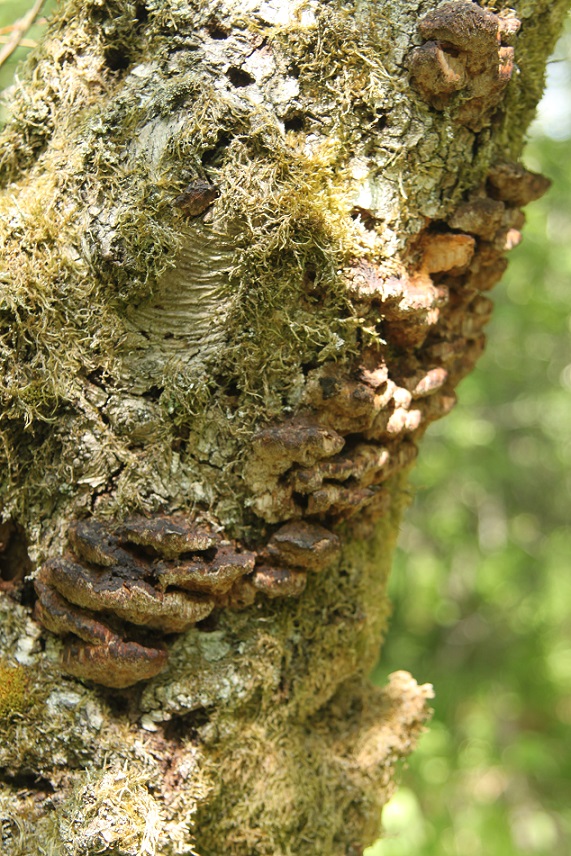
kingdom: Fungi
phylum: Basidiomycota
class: Agaricomycetes
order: Hymenochaetales
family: Hymenochaetaceae
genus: Xanthoporia
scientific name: Xanthoporia radiata
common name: elle-spejlporesvamp
